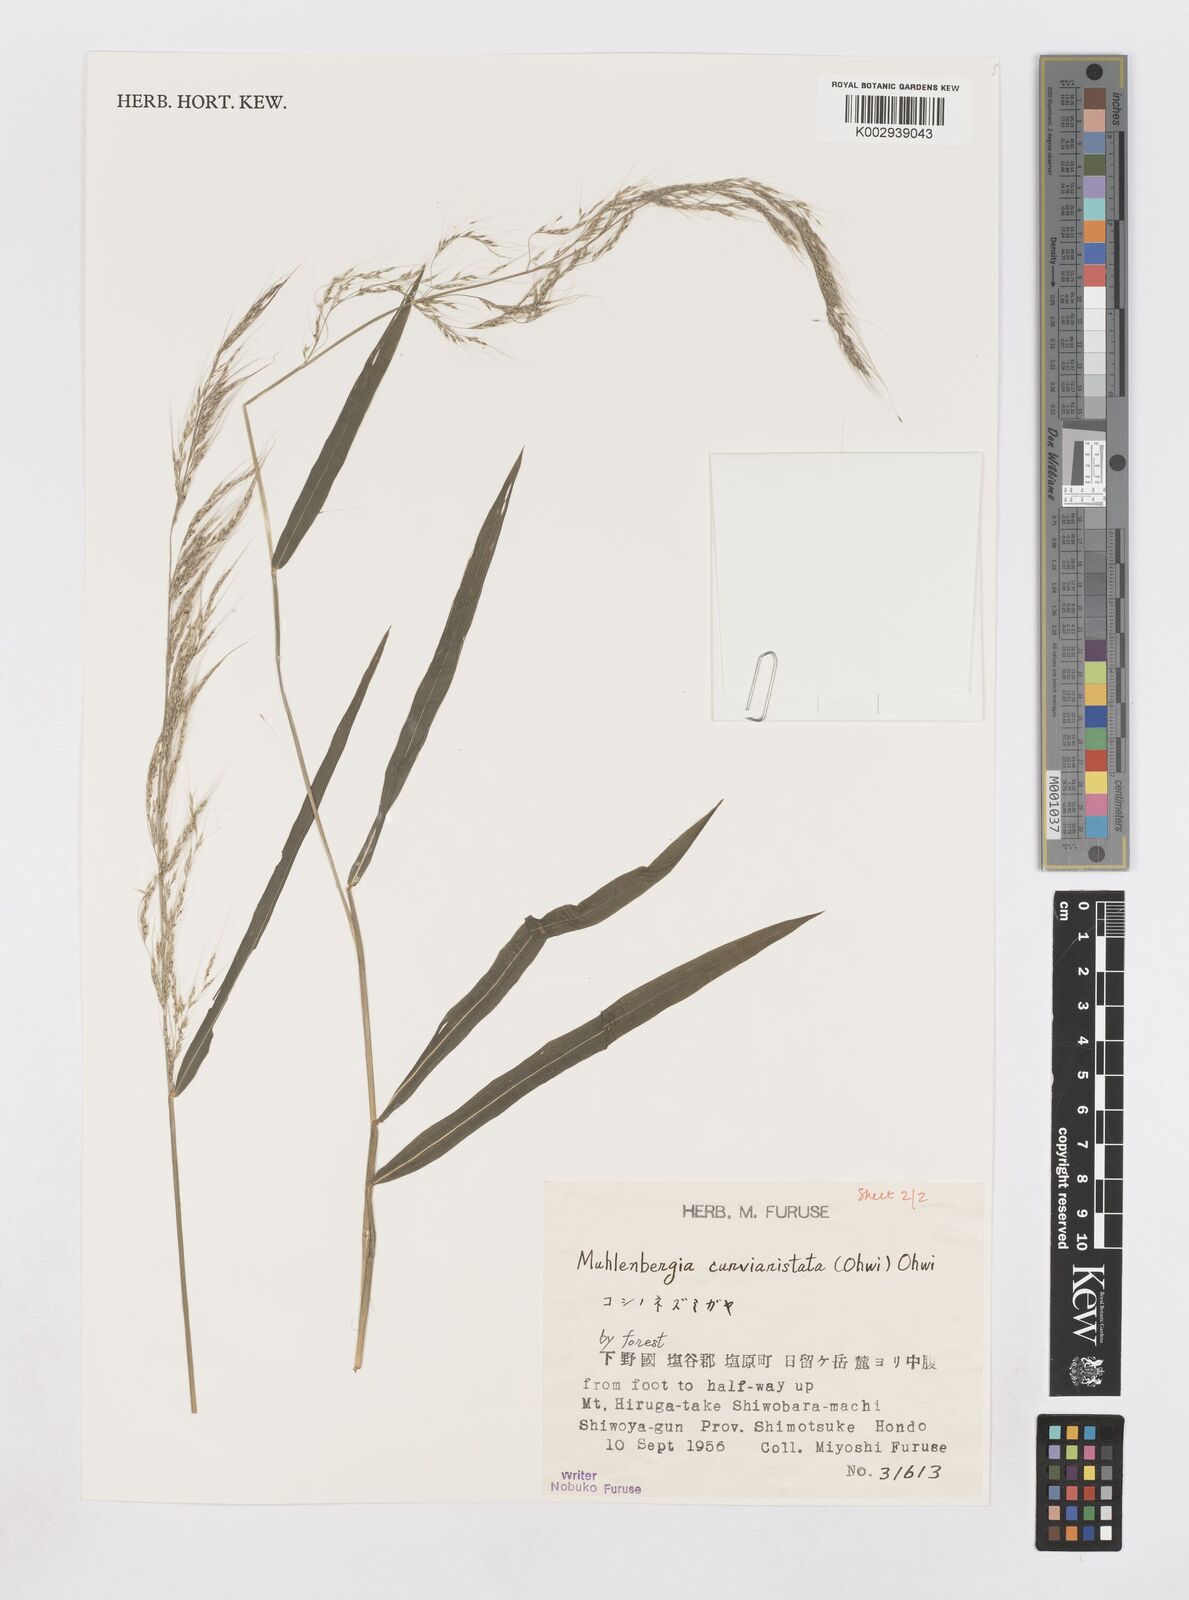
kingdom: Plantae
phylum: Tracheophyta
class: Liliopsida
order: Poales
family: Poaceae
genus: Muhlenbergia
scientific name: Muhlenbergia curviaristata
